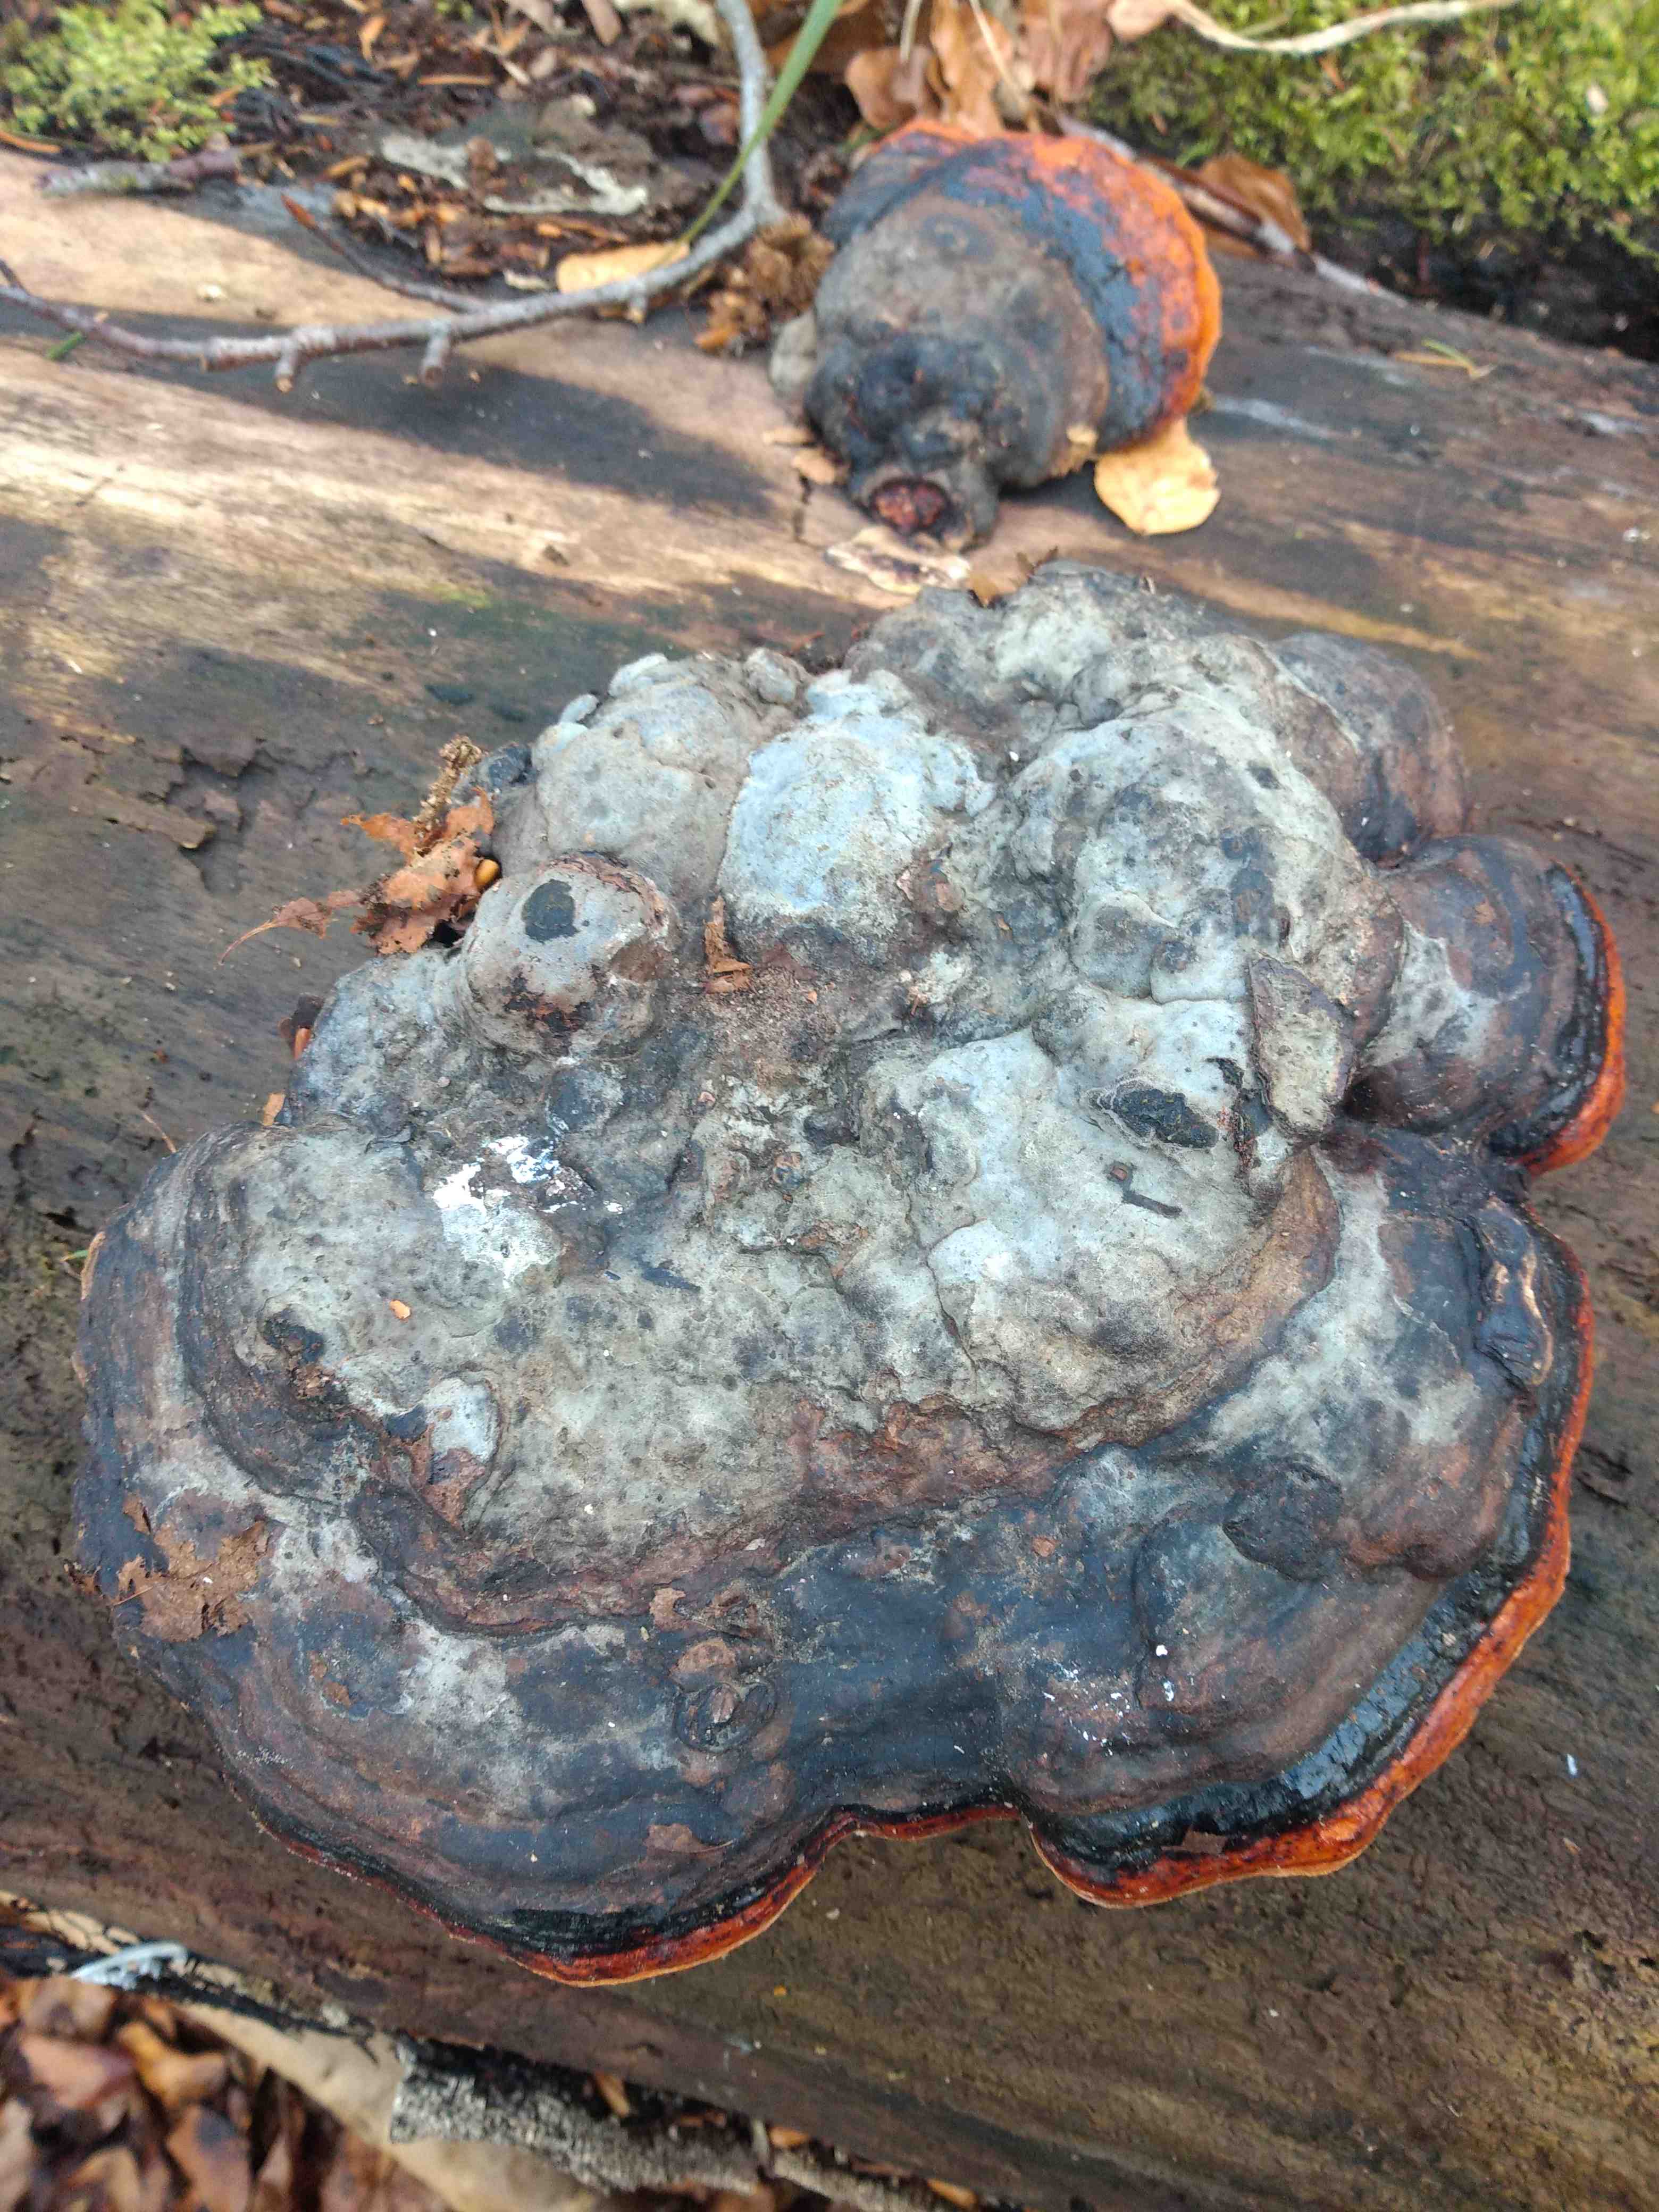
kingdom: Fungi
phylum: Basidiomycota
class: Agaricomycetes
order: Polyporales
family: Fomitopsidaceae
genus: Fomitopsis
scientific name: Fomitopsis pinicola
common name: randbæltet hovporesvamp
